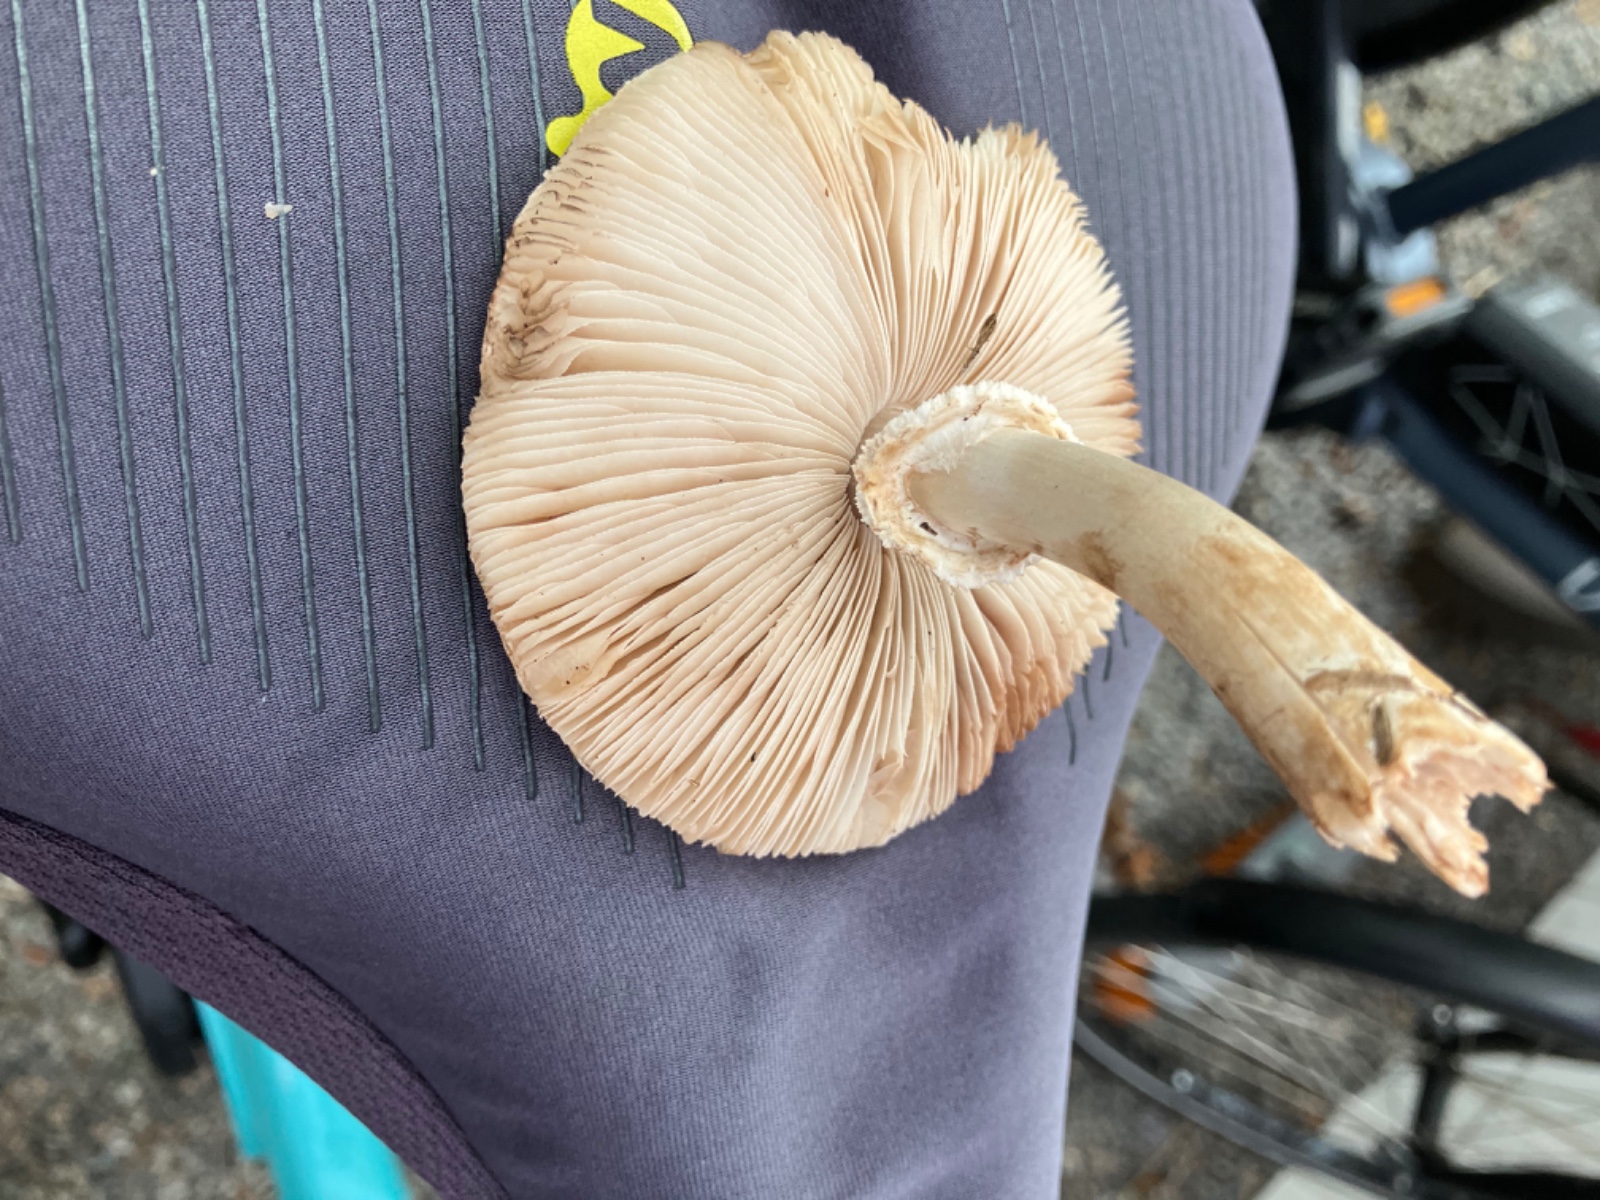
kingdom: Fungi
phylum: Basidiomycota
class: Agaricomycetes
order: Agaricales
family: Agaricaceae
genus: Leucoagaricus
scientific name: Leucoagaricus leucothites
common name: rosabladet silkehat
